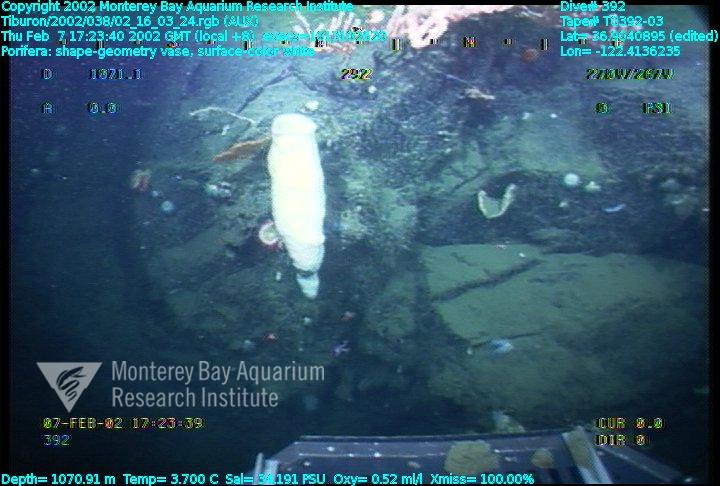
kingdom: Animalia
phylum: Porifera
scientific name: Porifera
